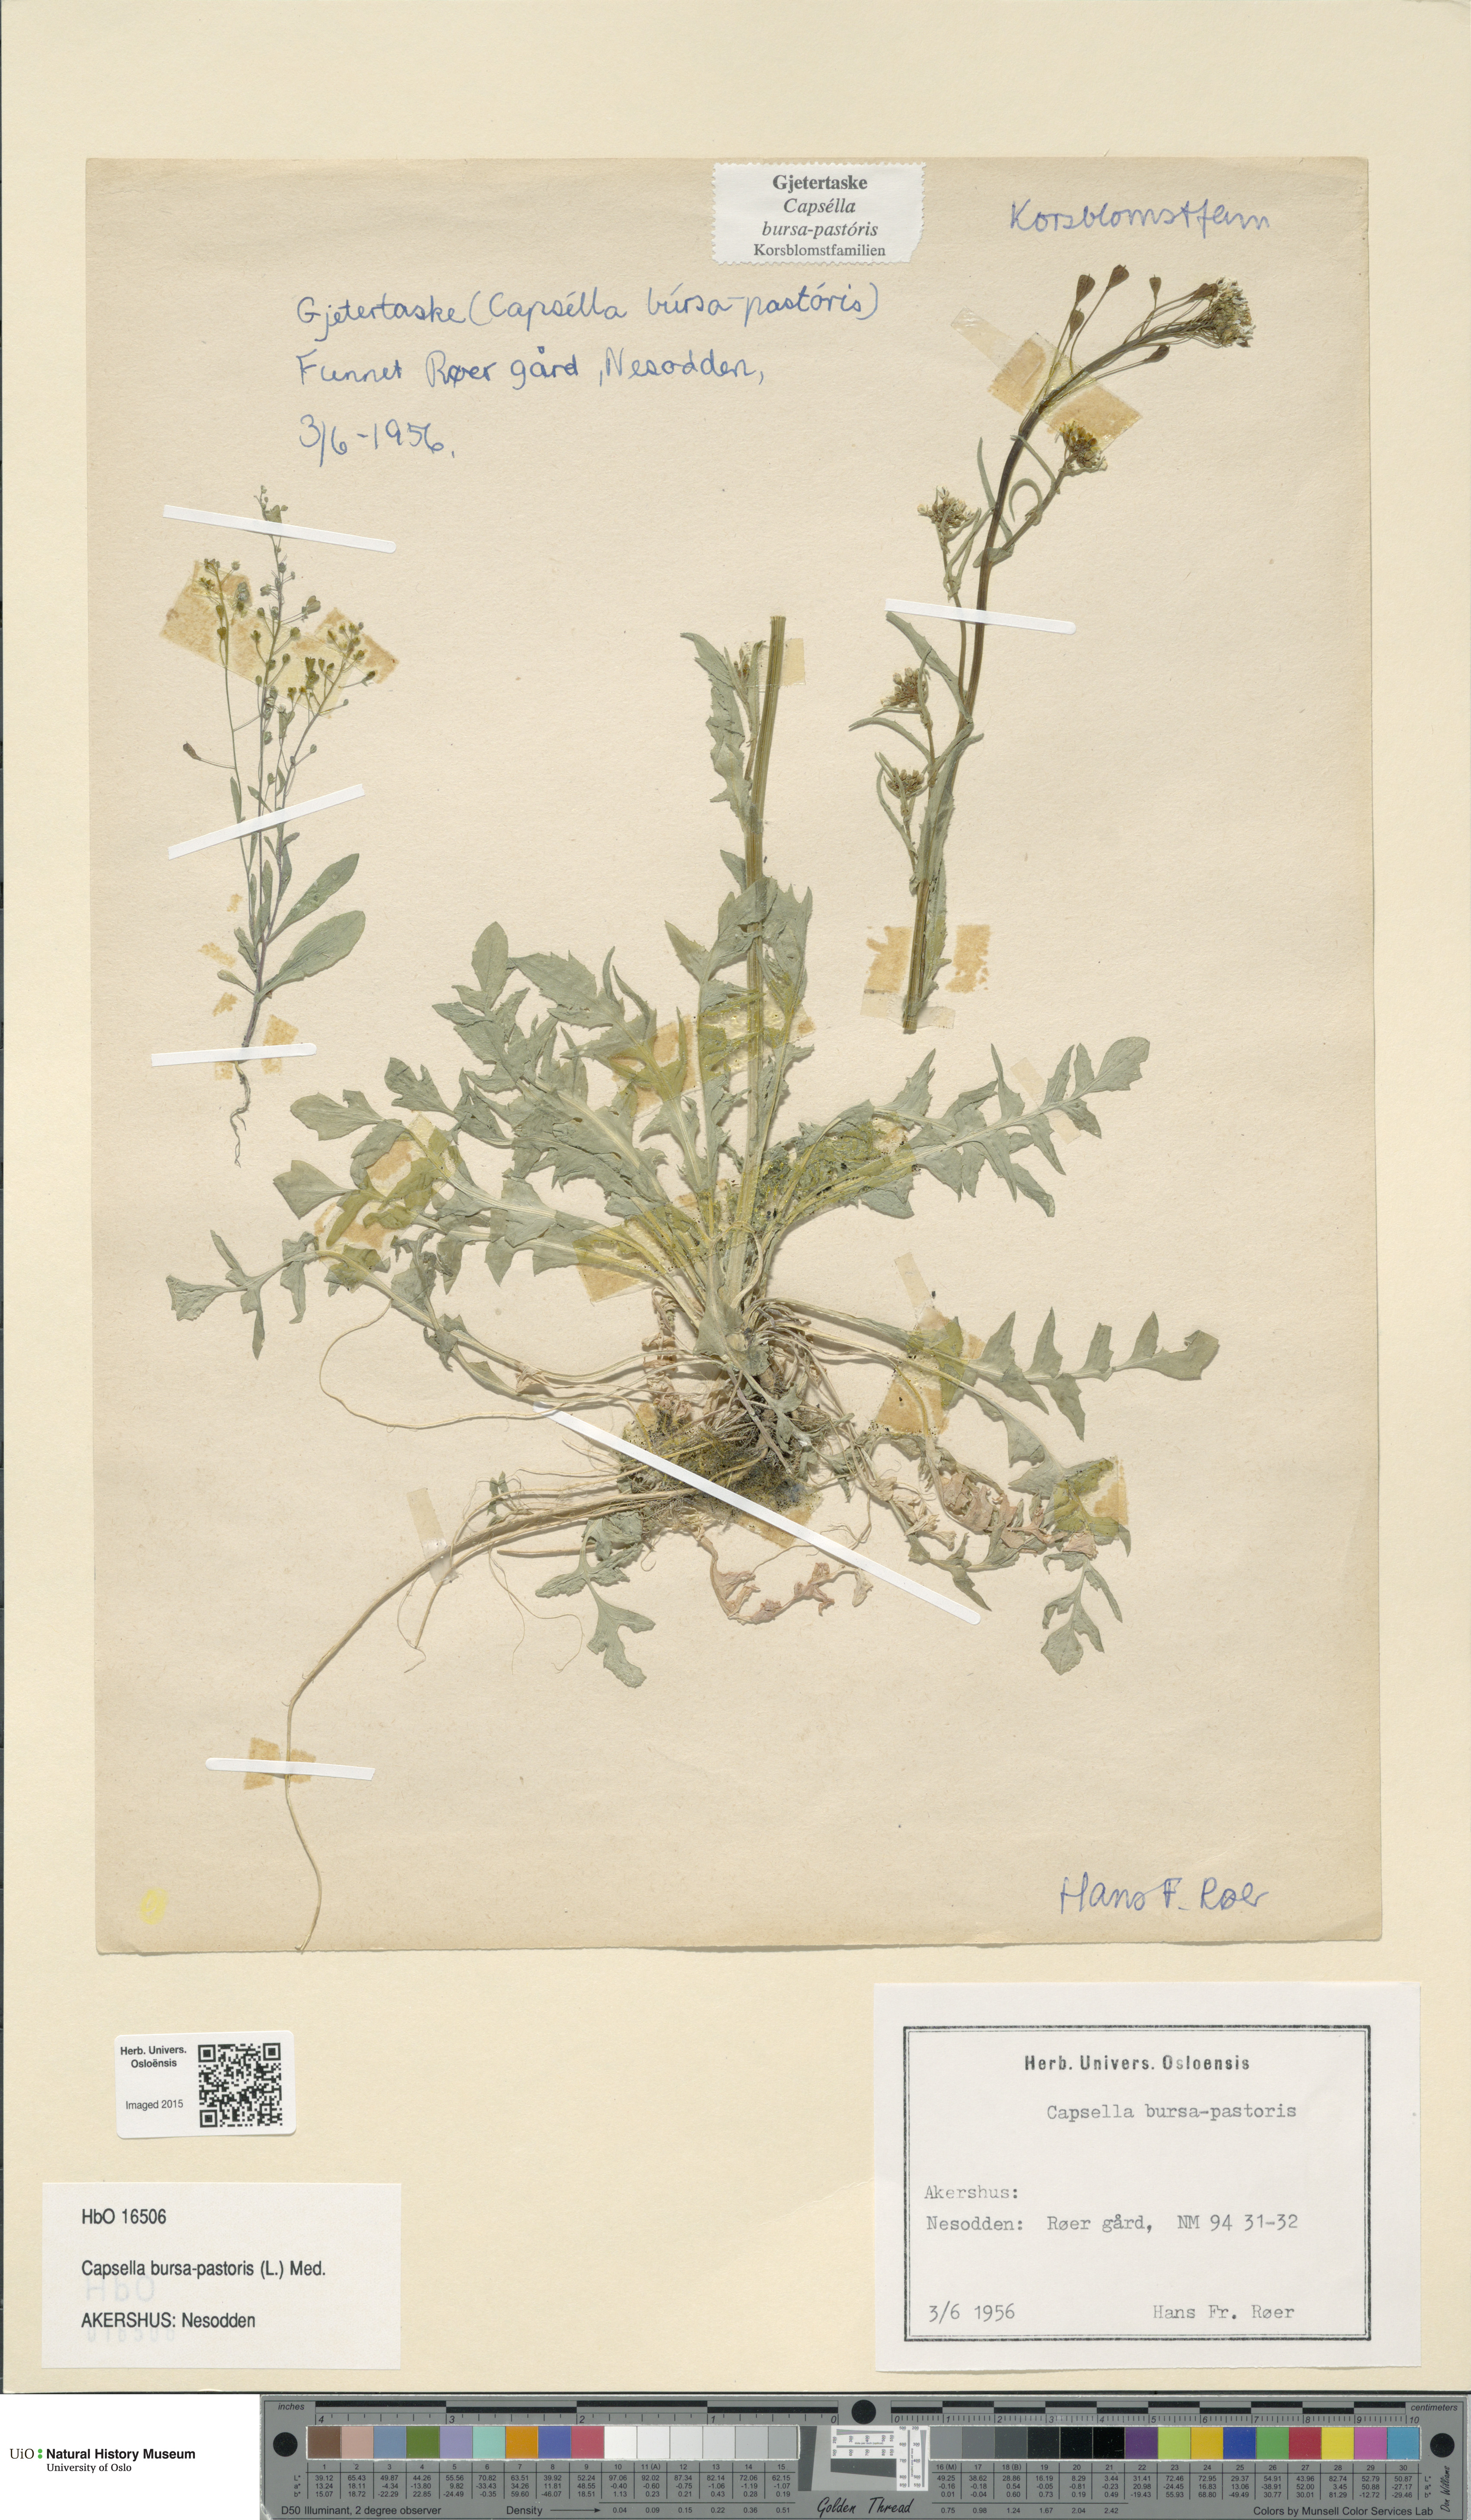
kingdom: Plantae
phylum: Tracheophyta
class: Magnoliopsida
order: Brassicales
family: Brassicaceae
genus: Capsella
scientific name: Capsella bursa-pastoris
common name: Shepherd's purse
